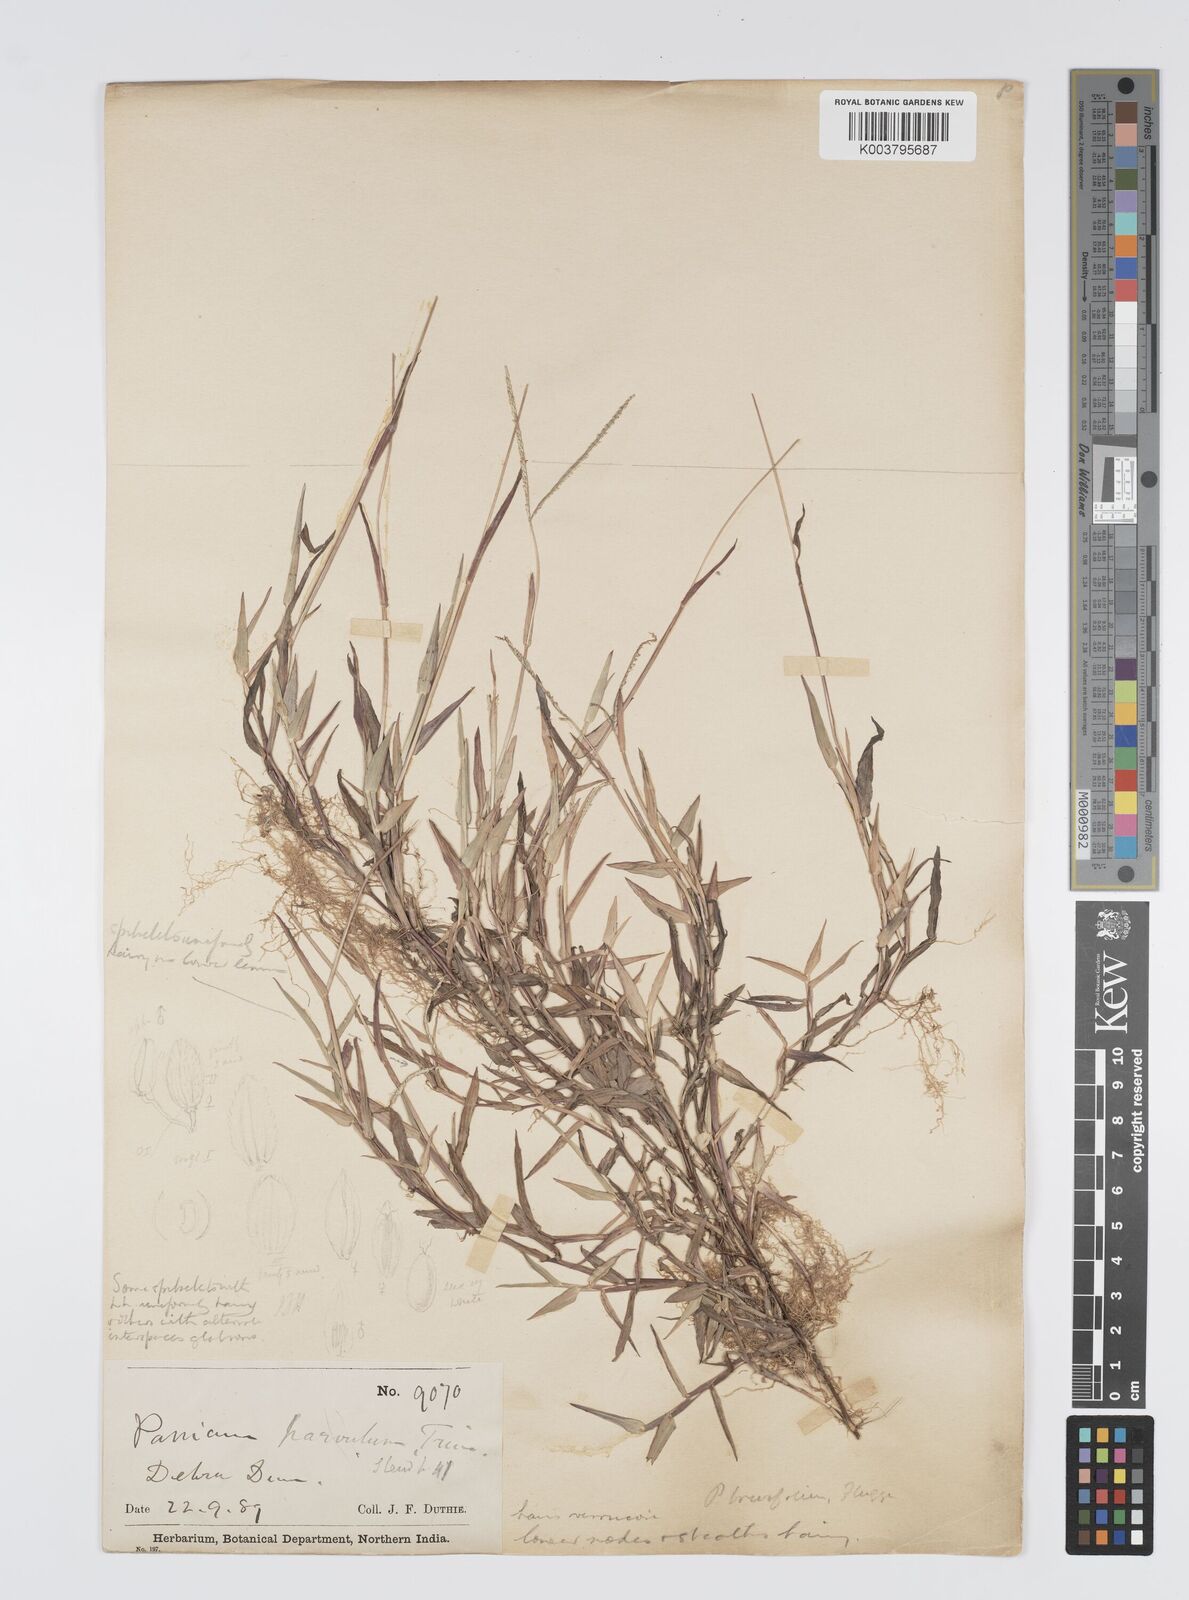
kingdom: Plantae
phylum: Tracheophyta
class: Liliopsida
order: Poales
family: Poaceae
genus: Digitaria
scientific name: Digitaria longiflora
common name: Wire crabgrass
